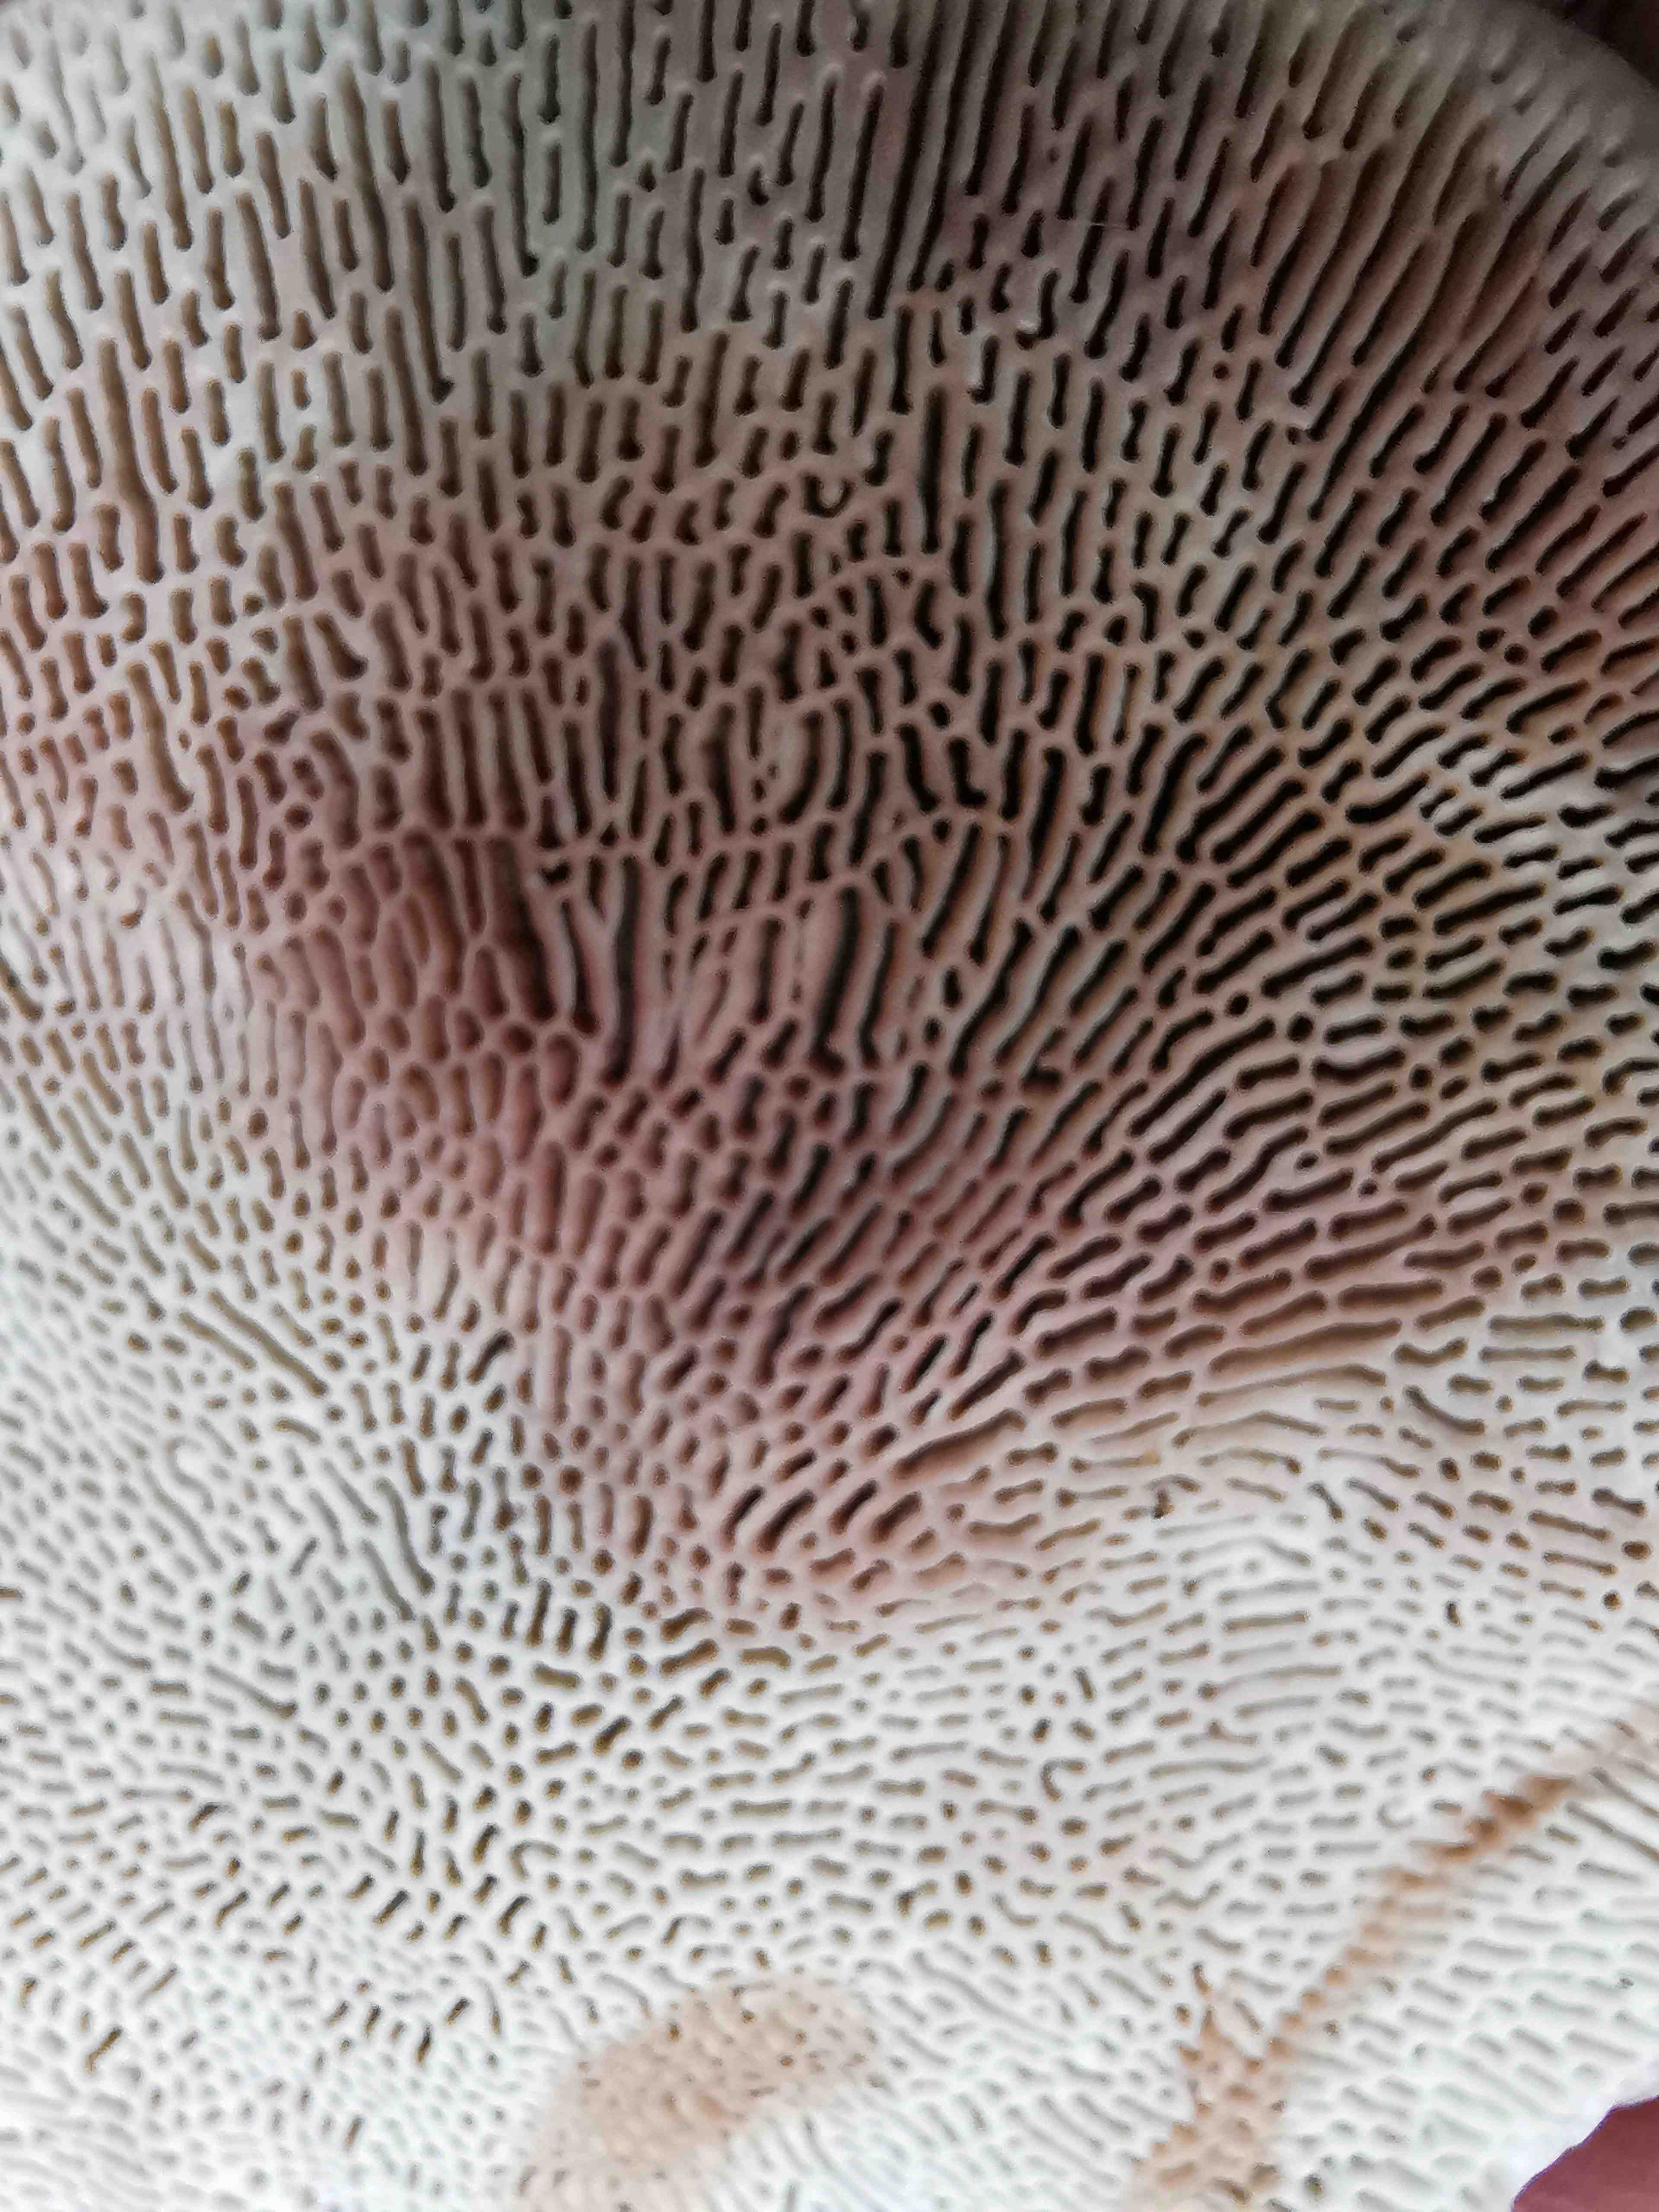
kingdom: Fungi
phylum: Basidiomycota
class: Agaricomycetes
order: Polyporales
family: Polyporaceae
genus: Daedaleopsis
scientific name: Daedaleopsis confragosa
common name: rødmende læderporesvamp
